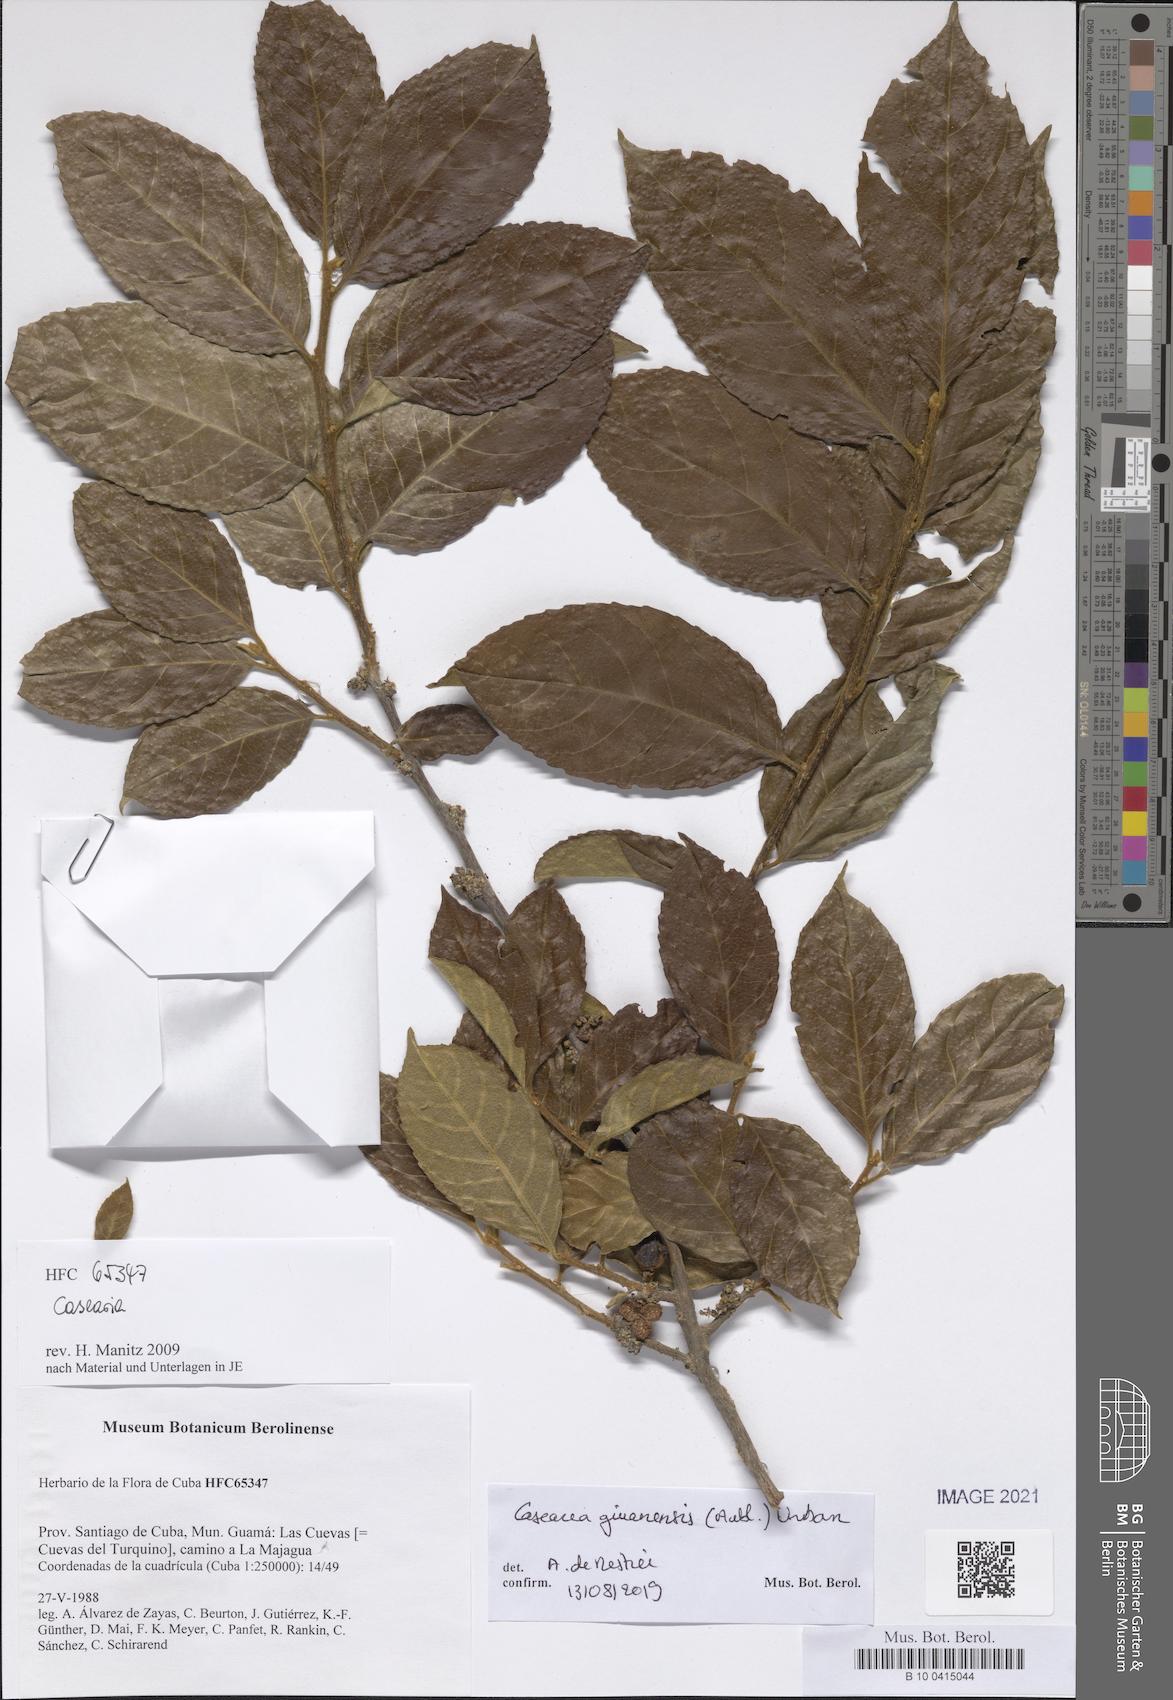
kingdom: Plantae
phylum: Tracheophyta
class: Magnoliopsida
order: Malpighiales
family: Salicaceae
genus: Casearia
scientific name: Casearia guianensis
